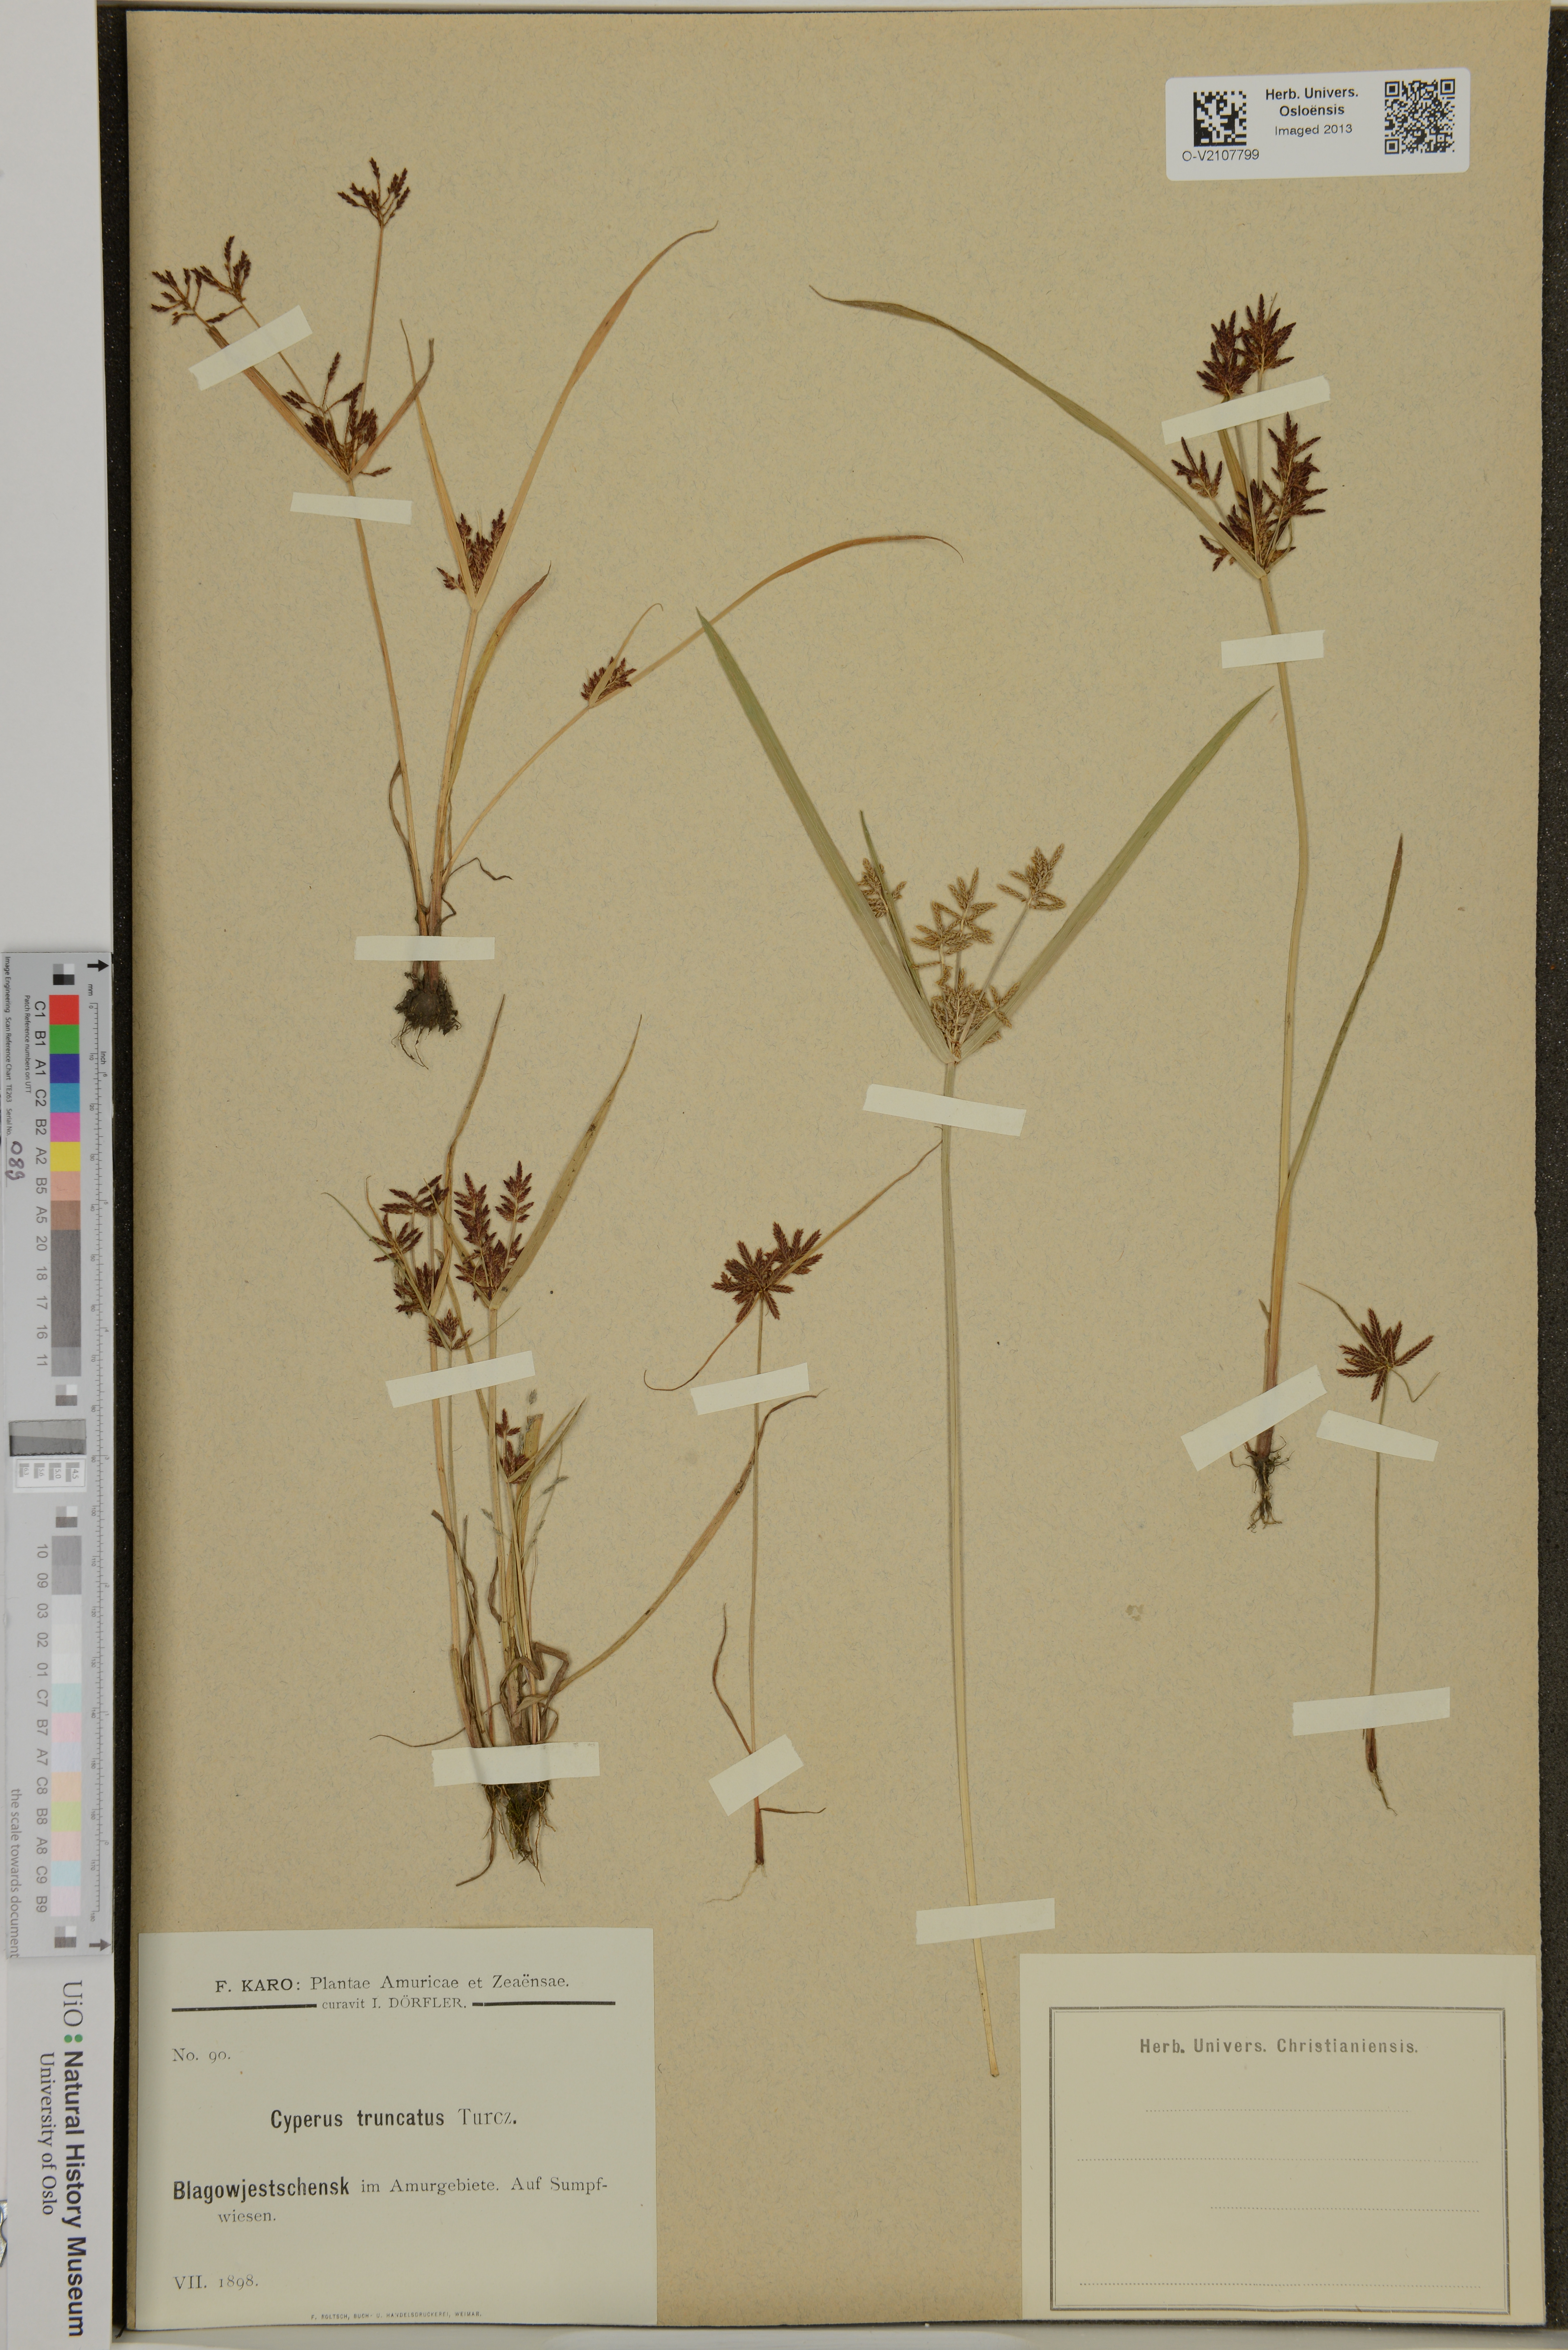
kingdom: Plantae
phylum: Tracheophyta
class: Liliopsida
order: Poales
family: Cyperaceae
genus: Cyperus
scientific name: Cyperus
